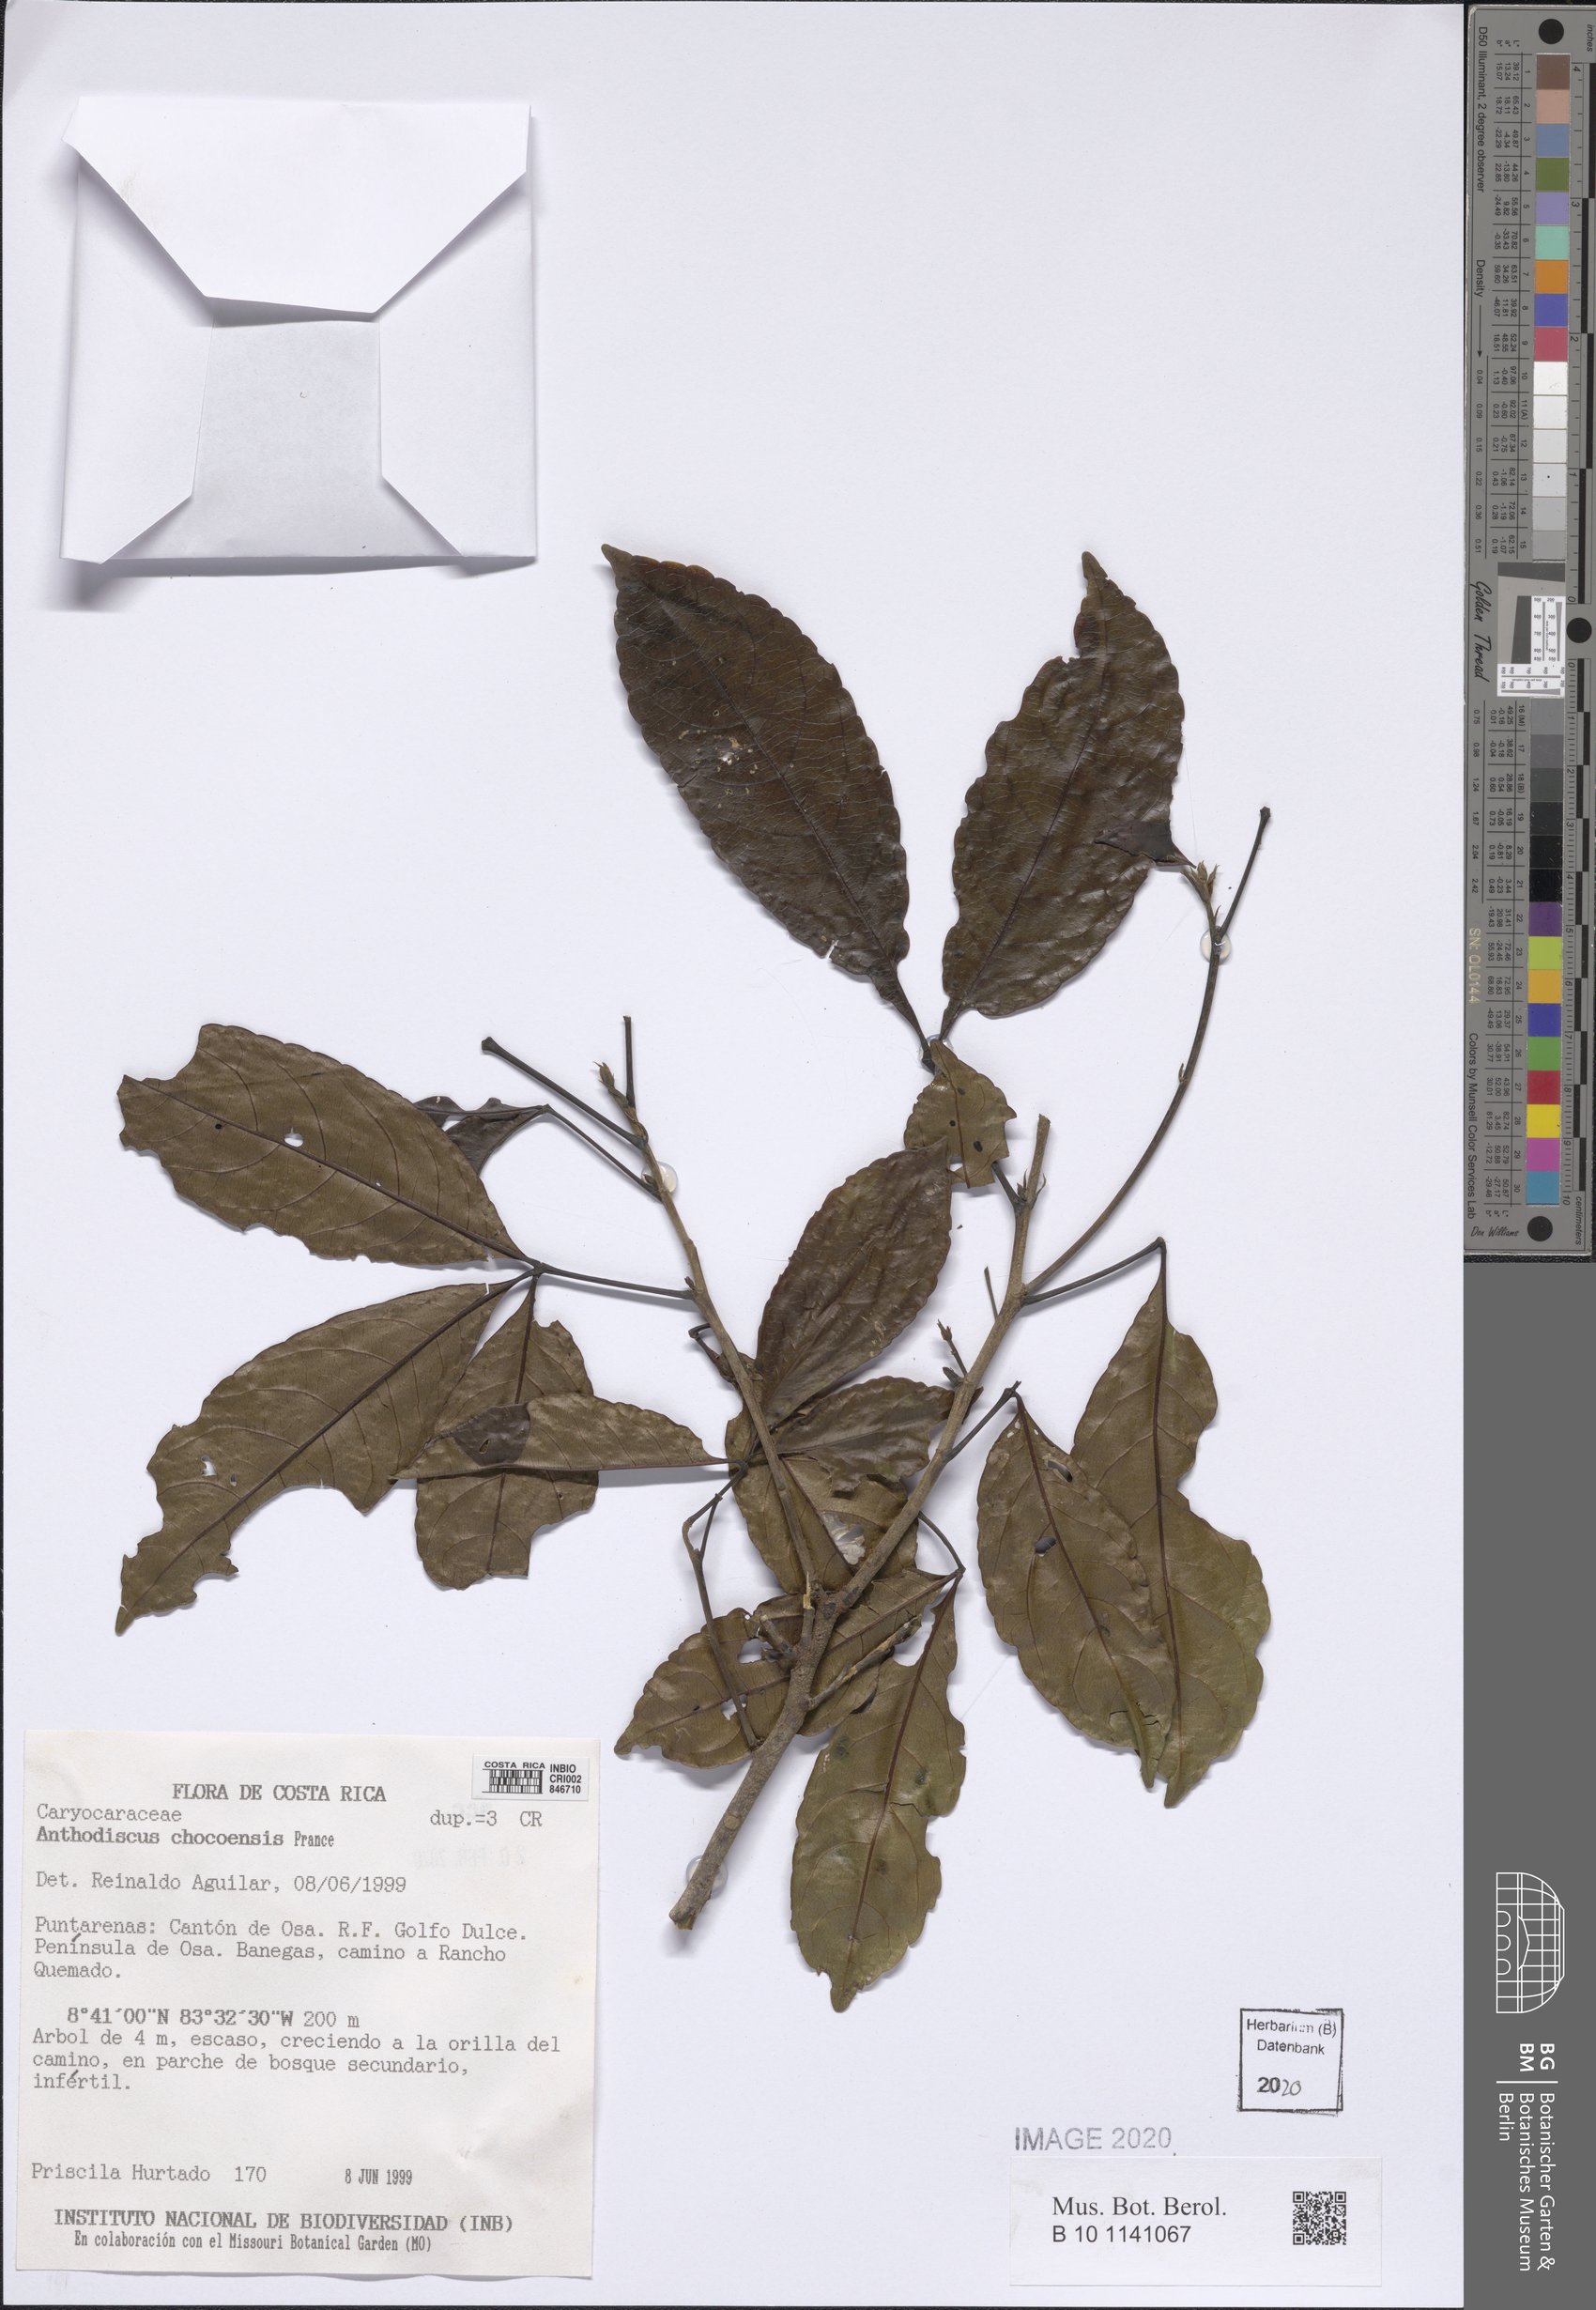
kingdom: Plantae
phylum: Tracheophyta
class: Magnoliopsida
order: Malpighiales
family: Caryocaraceae
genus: Anthodiscus
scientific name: Anthodiscus chocoensis
